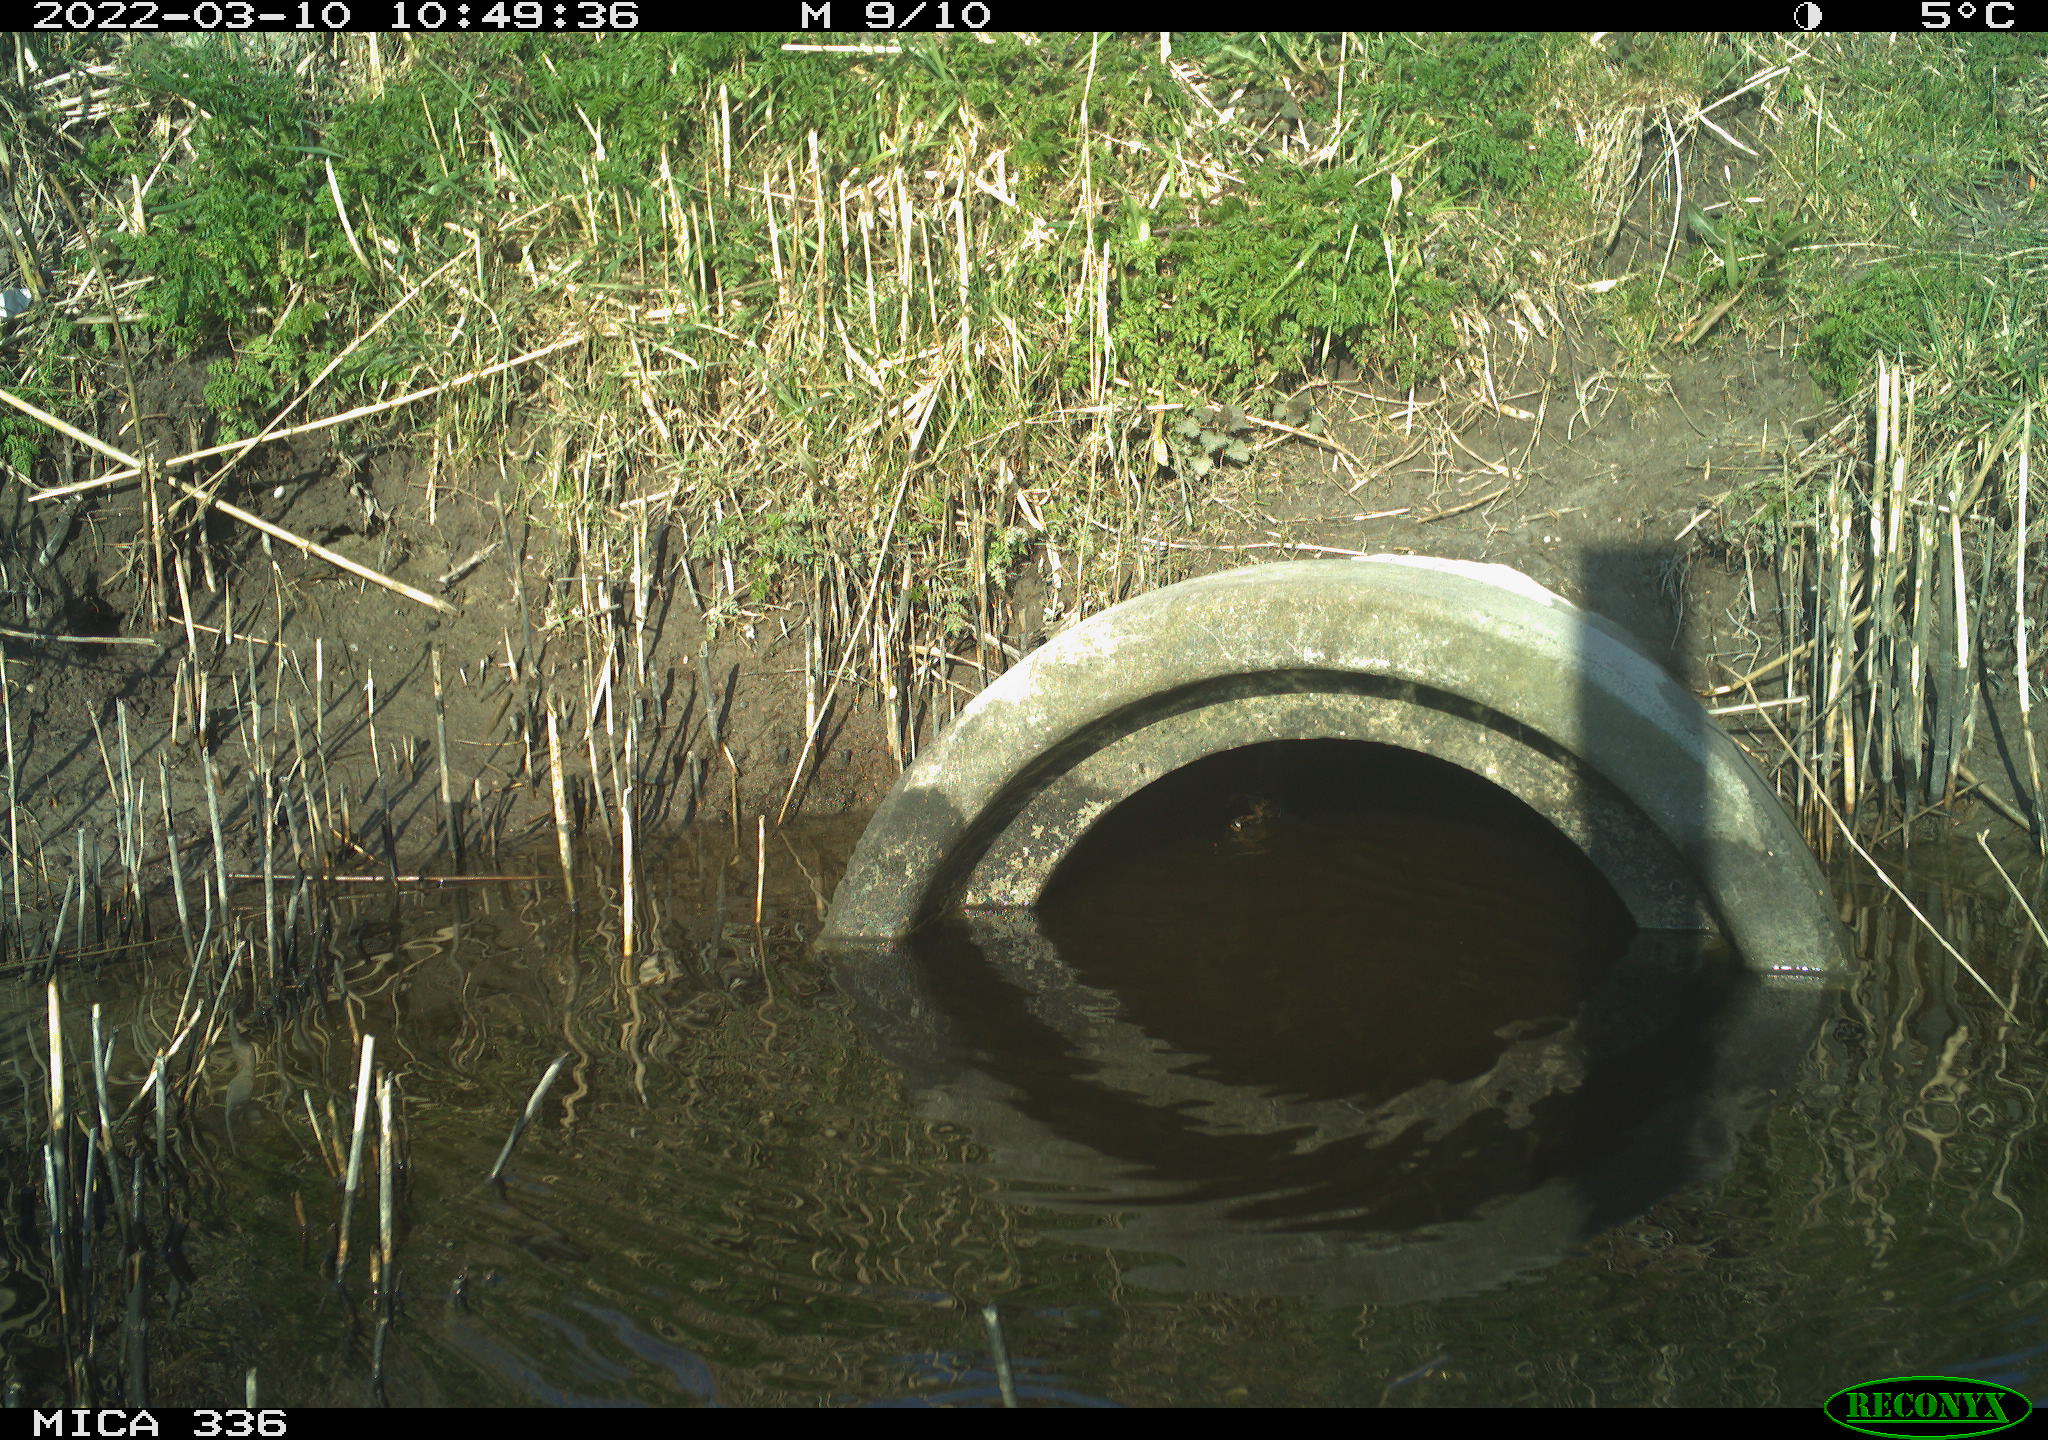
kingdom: Animalia
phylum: Chordata
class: Aves
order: Gruiformes
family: Rallidae
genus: Rallus
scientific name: Rallus aquaticus
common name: Water rail
